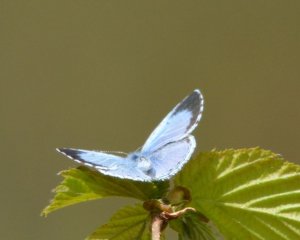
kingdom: Animalia
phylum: Arthropoda
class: Insecta
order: Lepidoptera
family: Lycaenidae
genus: Celastrina
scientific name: Celastrina
